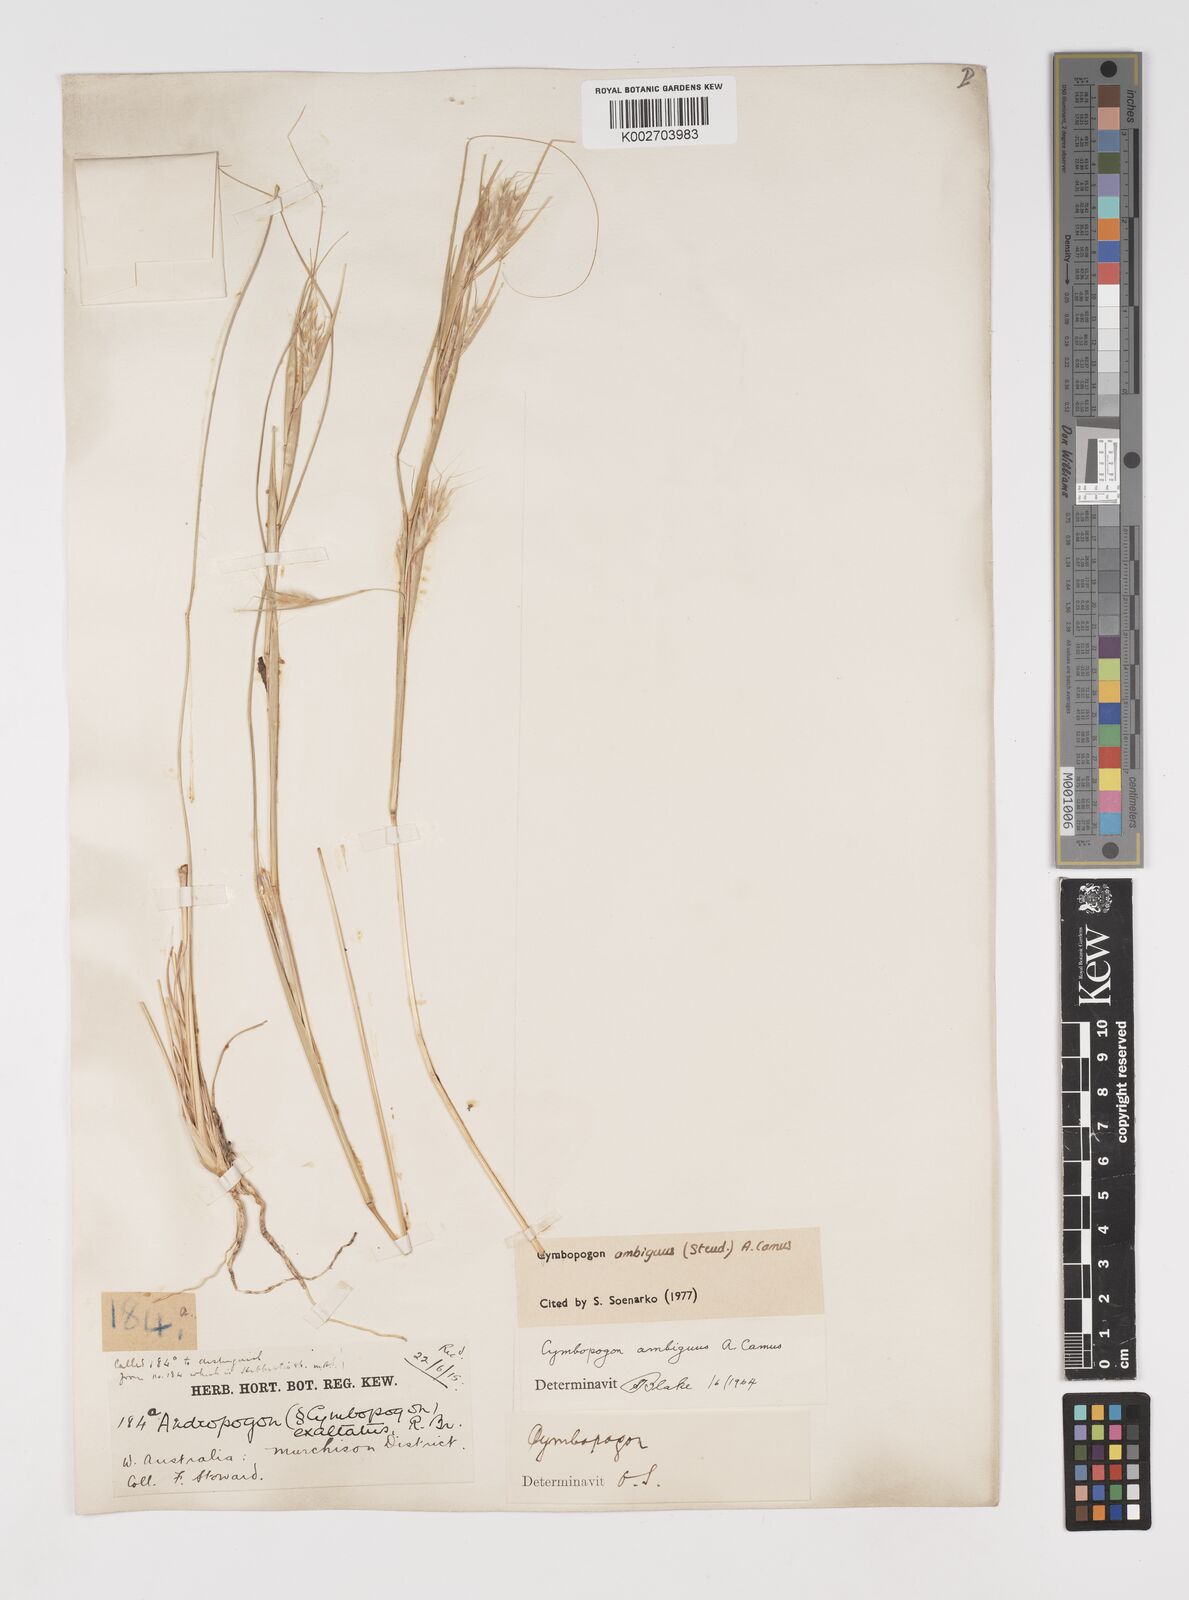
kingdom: Plantae
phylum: Tracheophyta
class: Liliopsida
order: Poales
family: Poaceae
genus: Cymbopogon
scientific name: Cymbopogon ambiguus
